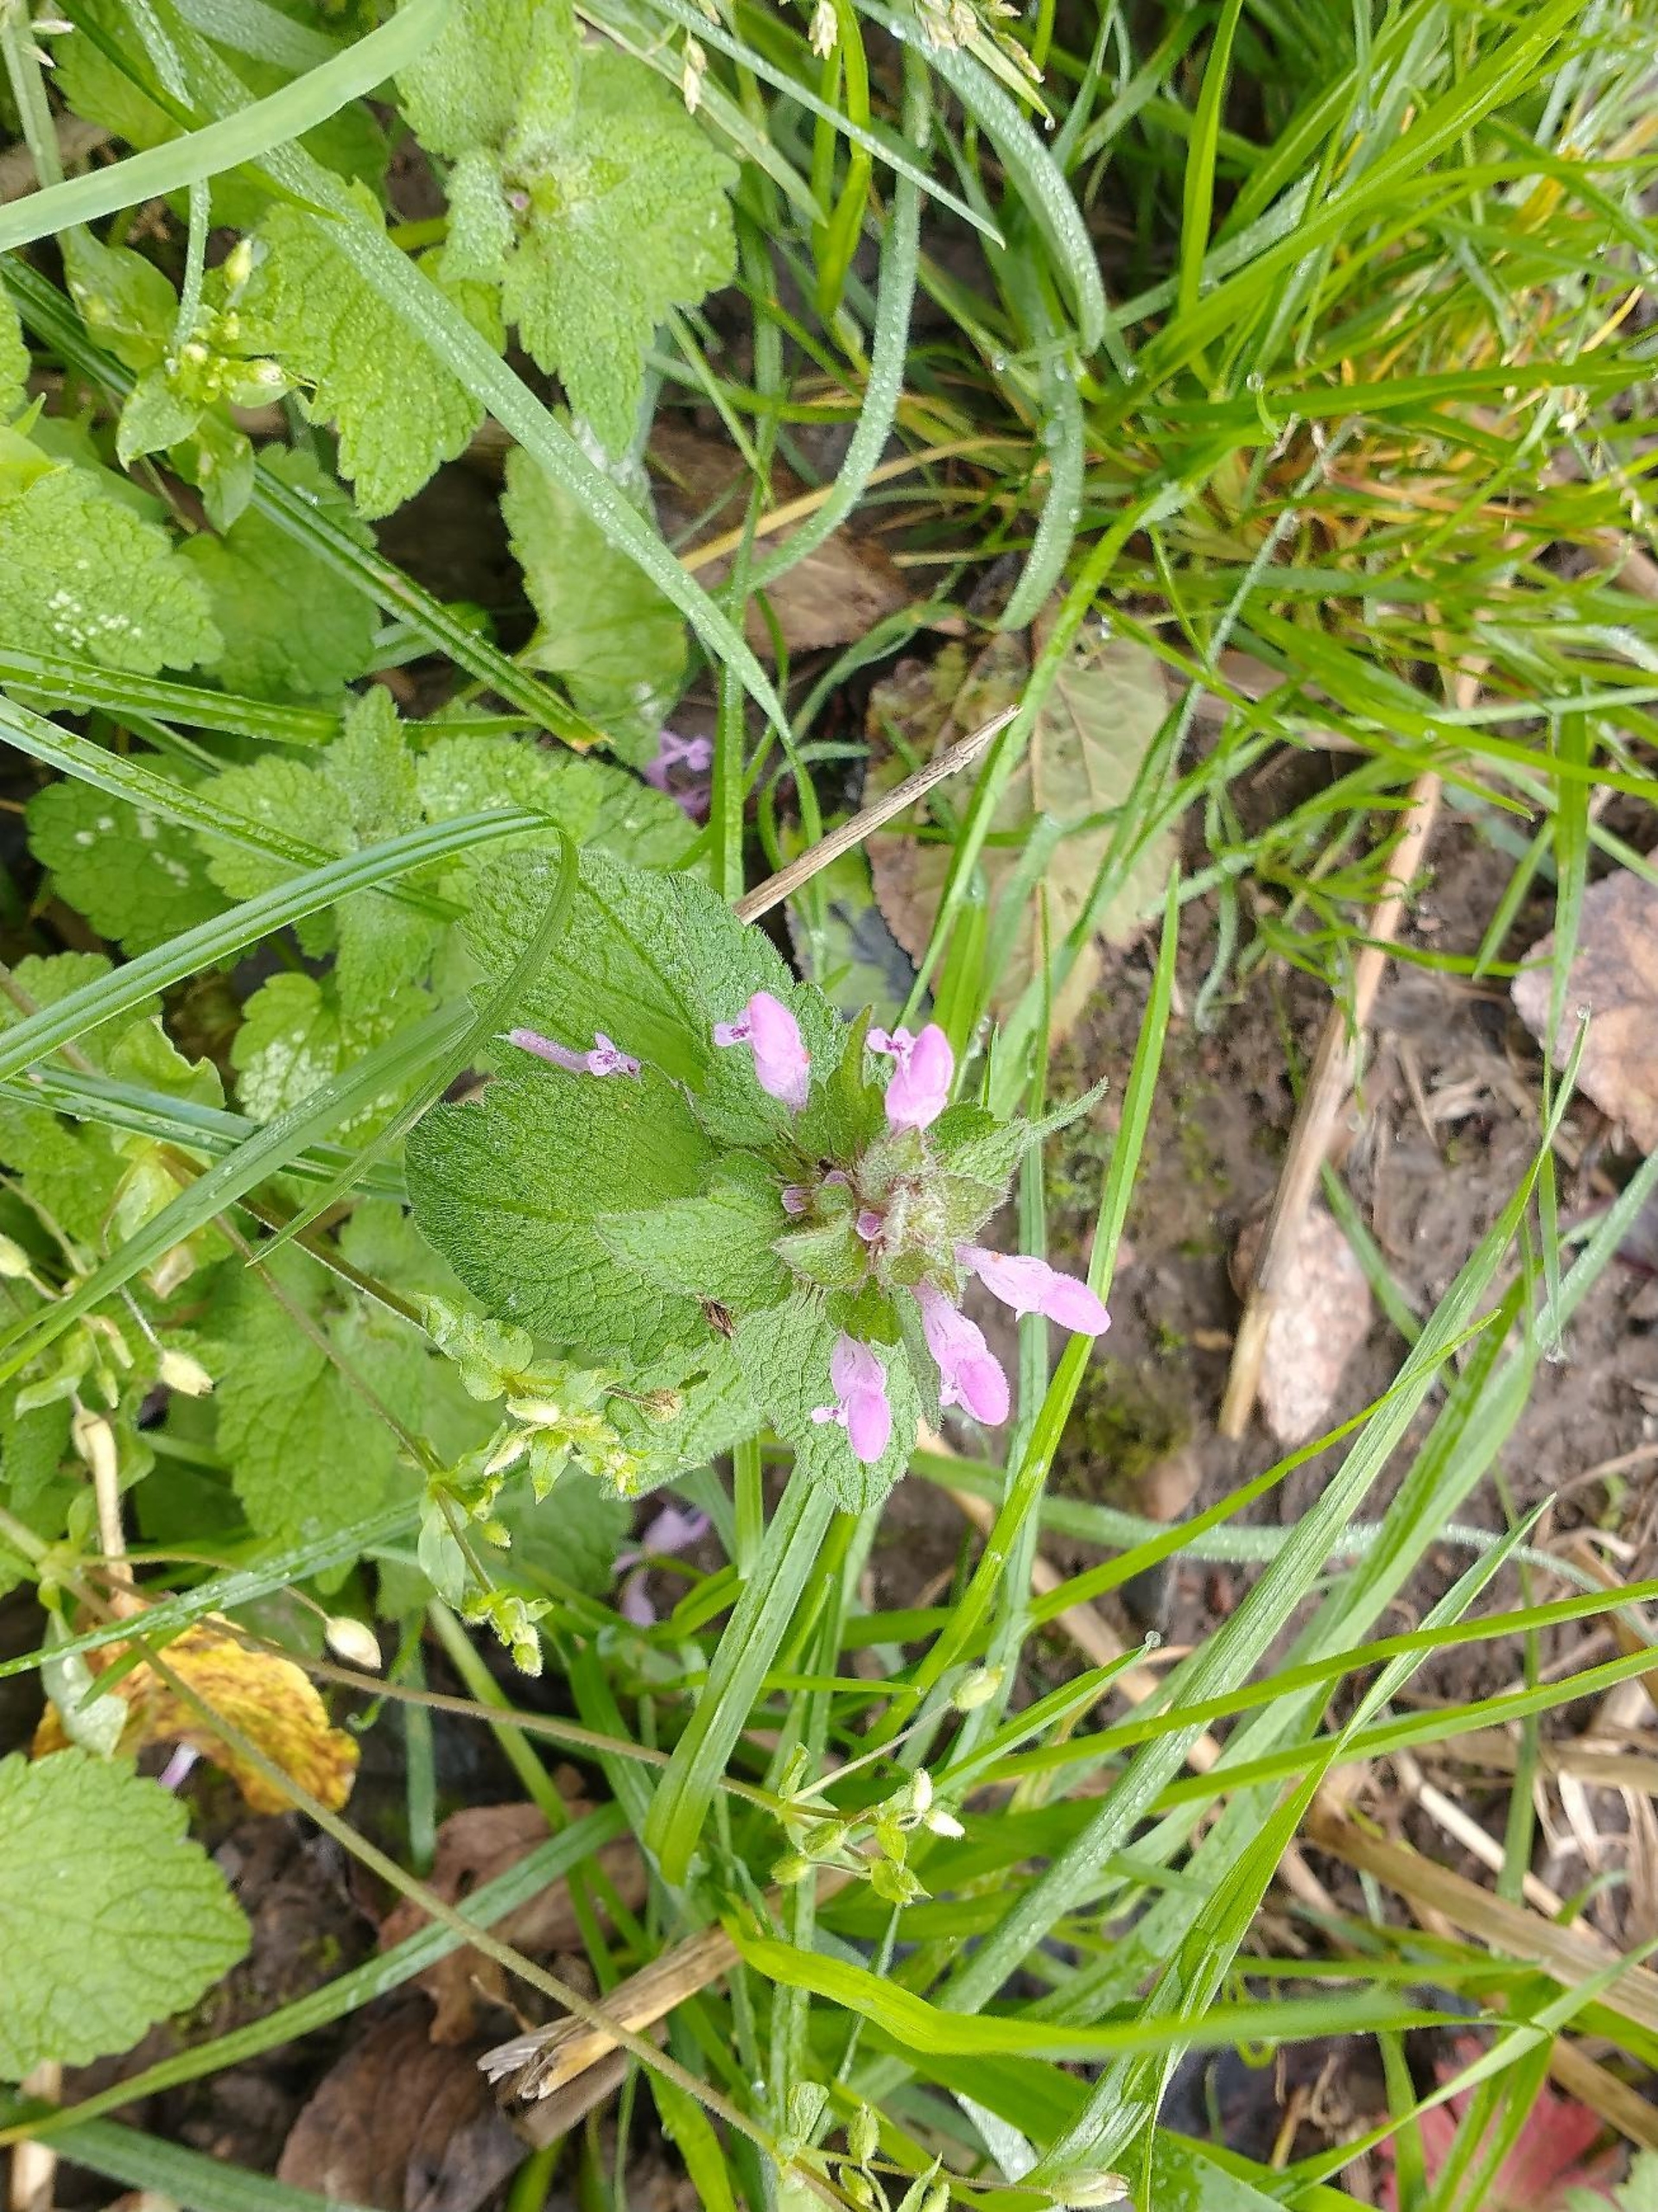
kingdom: Plantae
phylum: Tracheophyta
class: Magnoliopsida
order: Lamiales
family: Lamiaceae
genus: Lamium
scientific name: Lamium purpureum
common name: Rød tvetand
